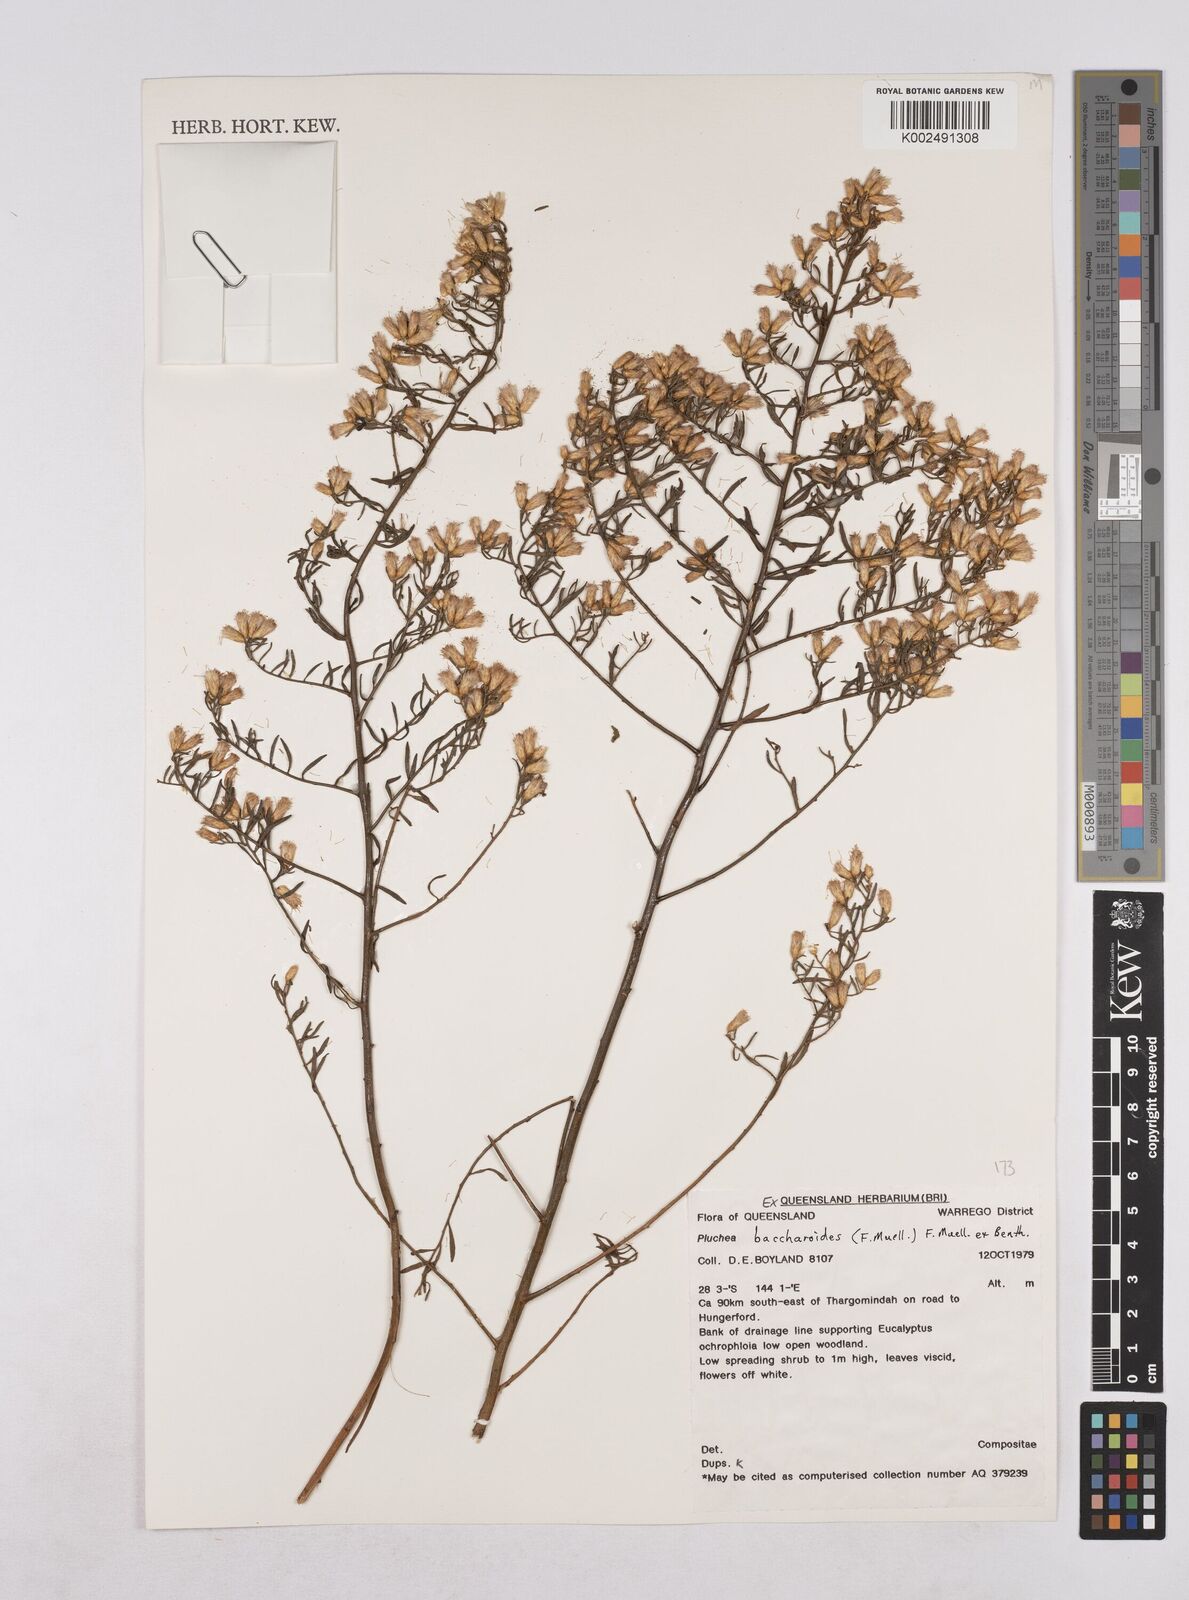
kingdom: Plantae
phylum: Tracheophyta
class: Magnoliopsida
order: Asterales
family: Asteraceae
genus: Pluchea
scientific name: Pluchea baccharoides
